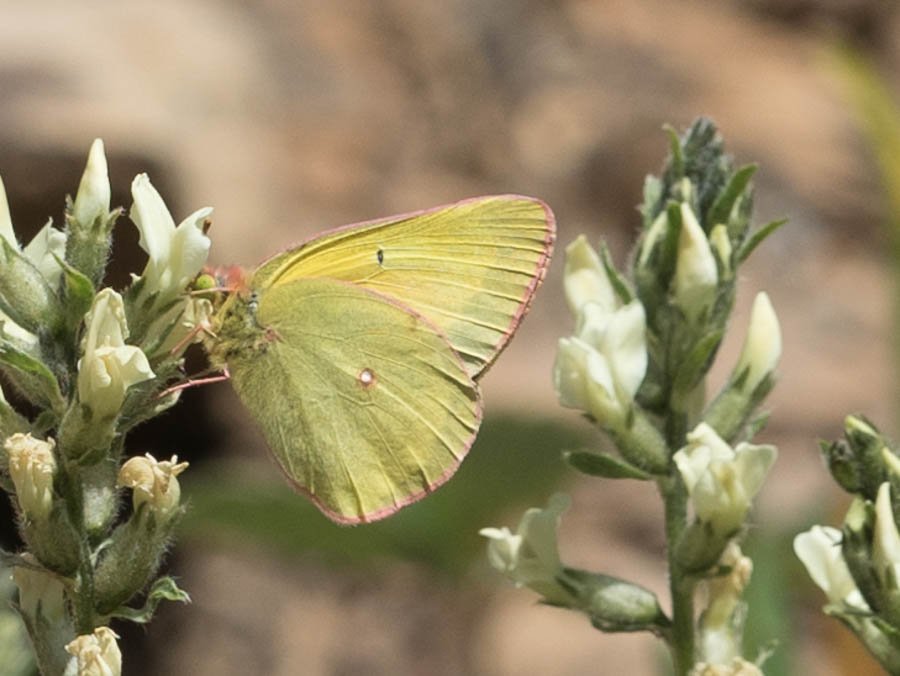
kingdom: Animalia
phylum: Arthropoda
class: Insecta
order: Lepidoptera
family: Pieridae
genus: Colias
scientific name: Colias interior
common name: Pink-edged Sulphur
